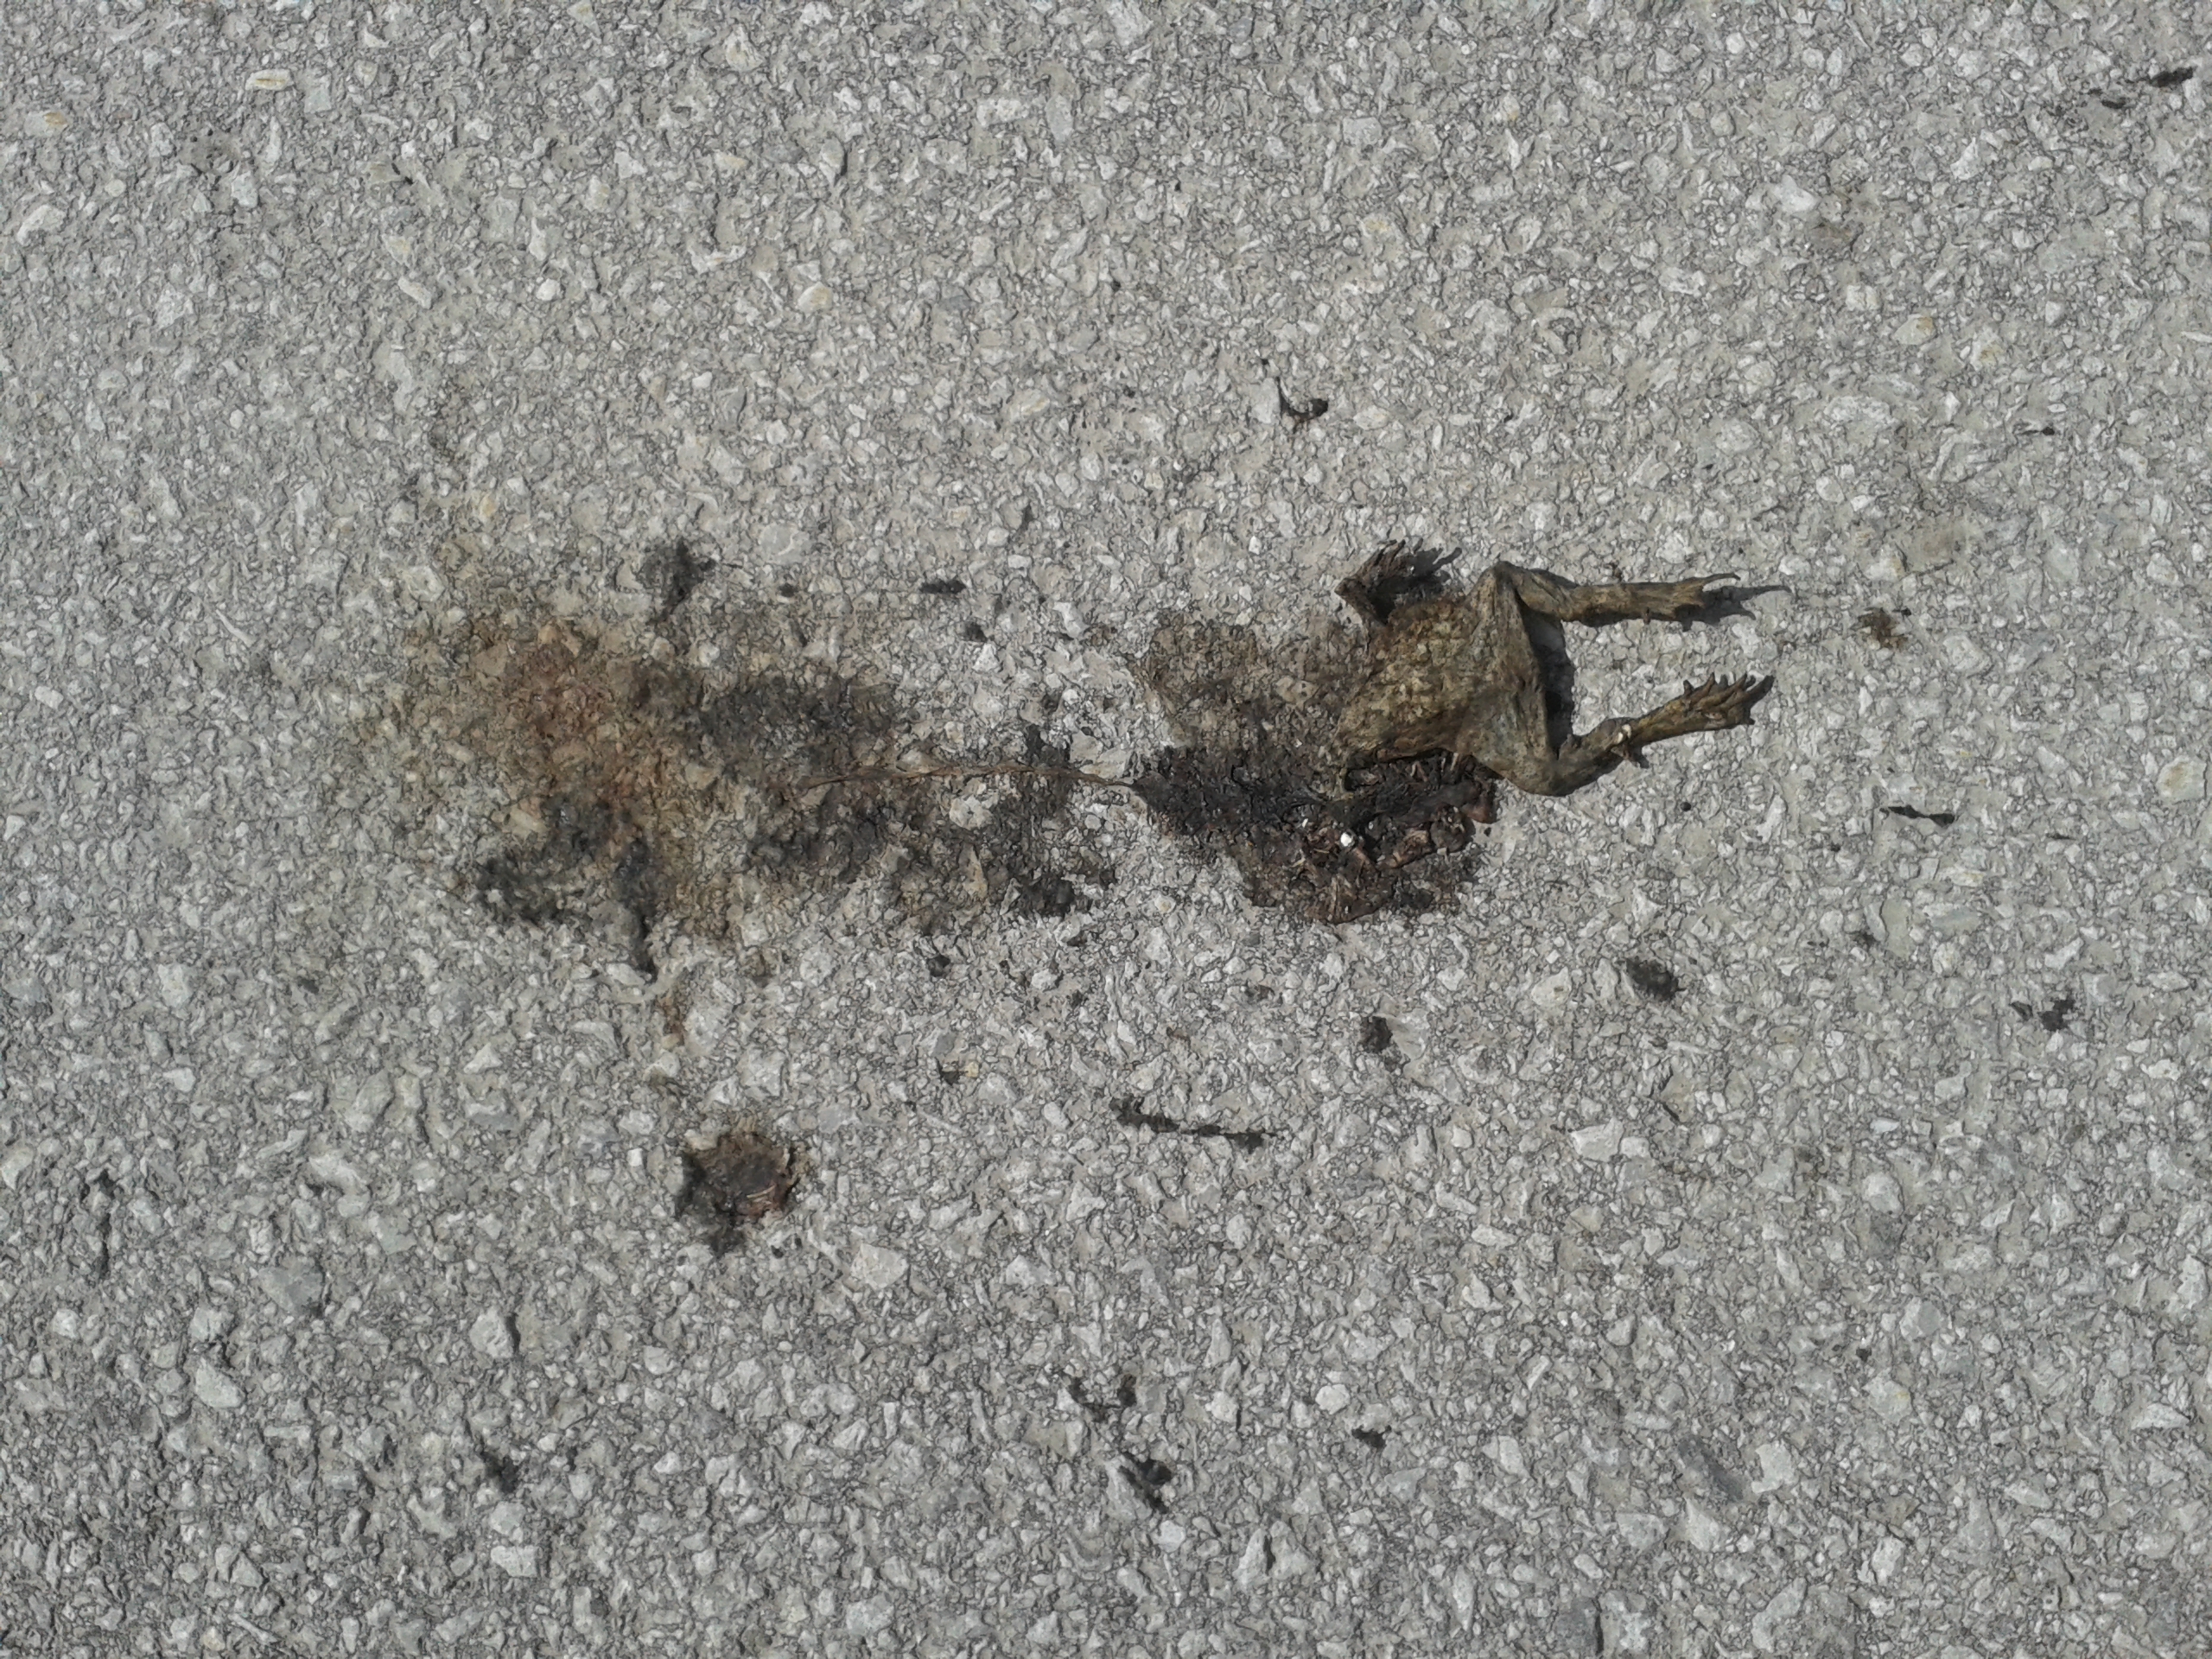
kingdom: Animalia
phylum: Chordata
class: Amphibia
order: Anura
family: Bufonidae
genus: Bufo
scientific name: Bufo bufo
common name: Common toad
